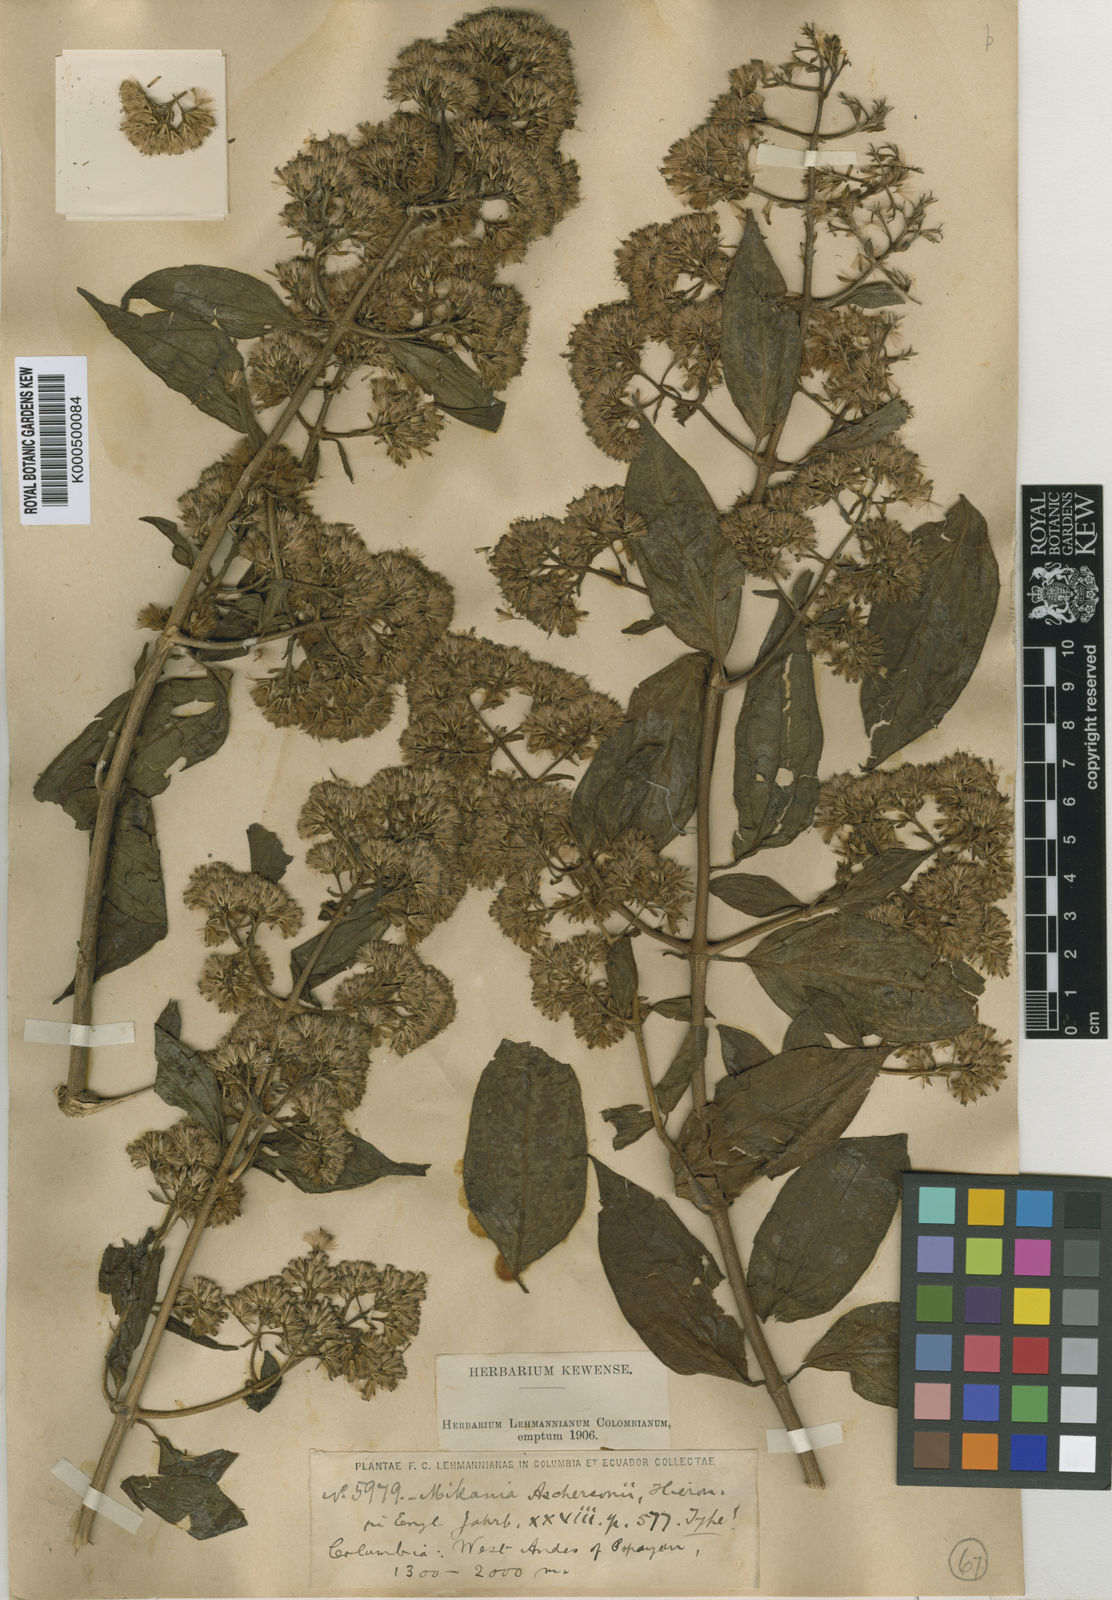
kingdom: Plantae
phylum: Tracheophyta
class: Magnoliopsida
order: Asterales
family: Asteraceae
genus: Mikania
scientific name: Mikania aschersonii
